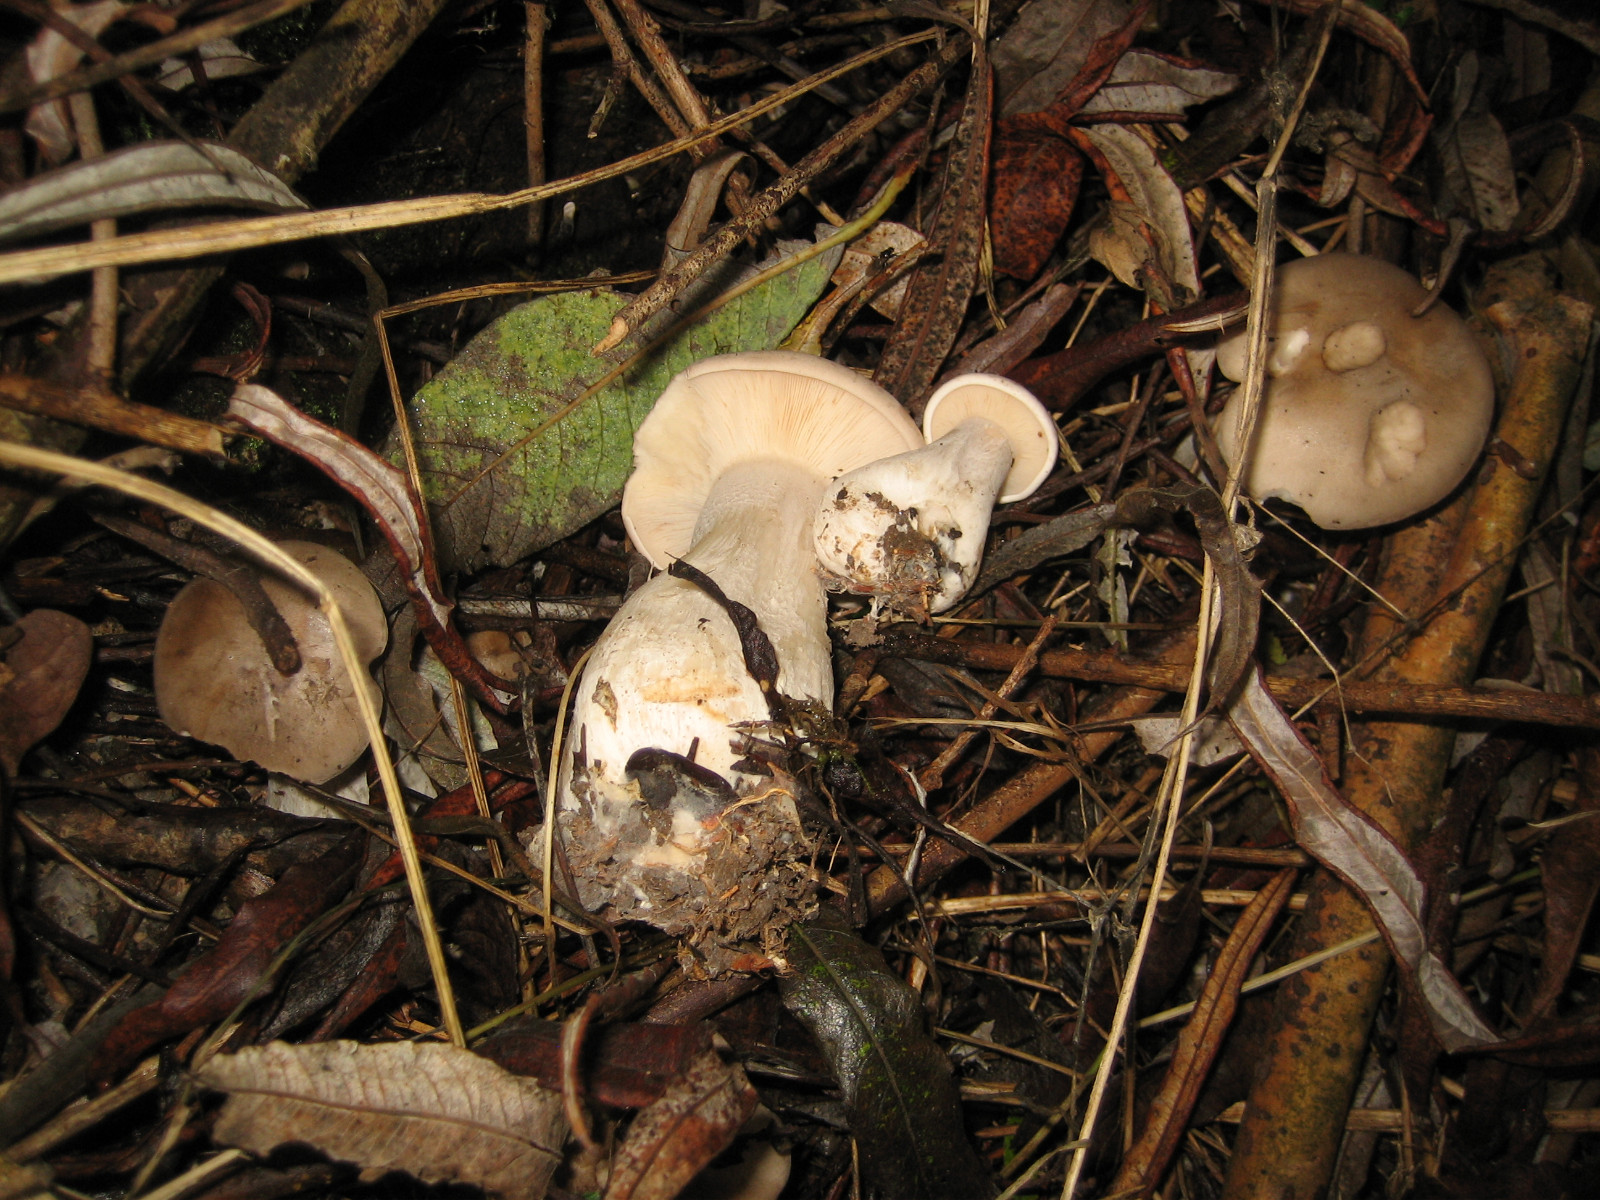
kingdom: Fungi
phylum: Basidiomycota
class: Agaricomycetes
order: Agaricales
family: Tricholomataceae
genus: Clitocybe
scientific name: Clitocybe nebularis
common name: tåge-tragthat
